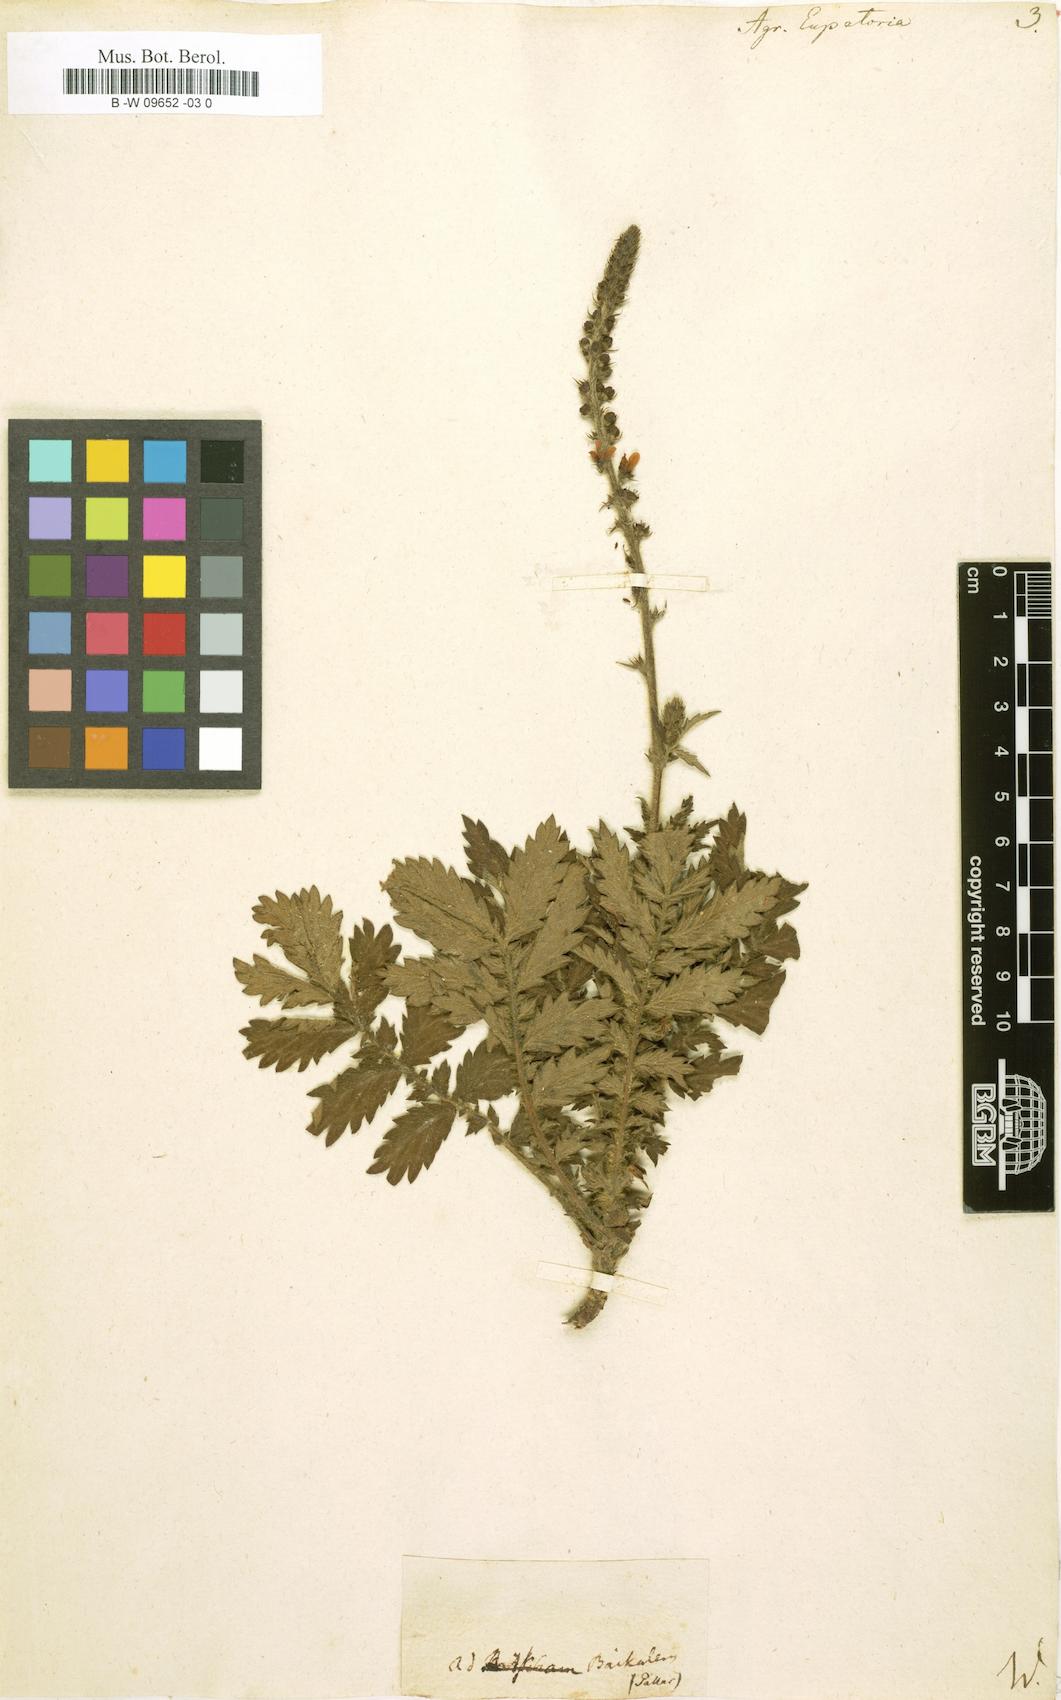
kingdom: Plantae
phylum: Tracheophyta
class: Magnoliopsida
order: Rosales
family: Rosaceae
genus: Agrimonia
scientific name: Agrimonia eupatoria
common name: Agrimony
